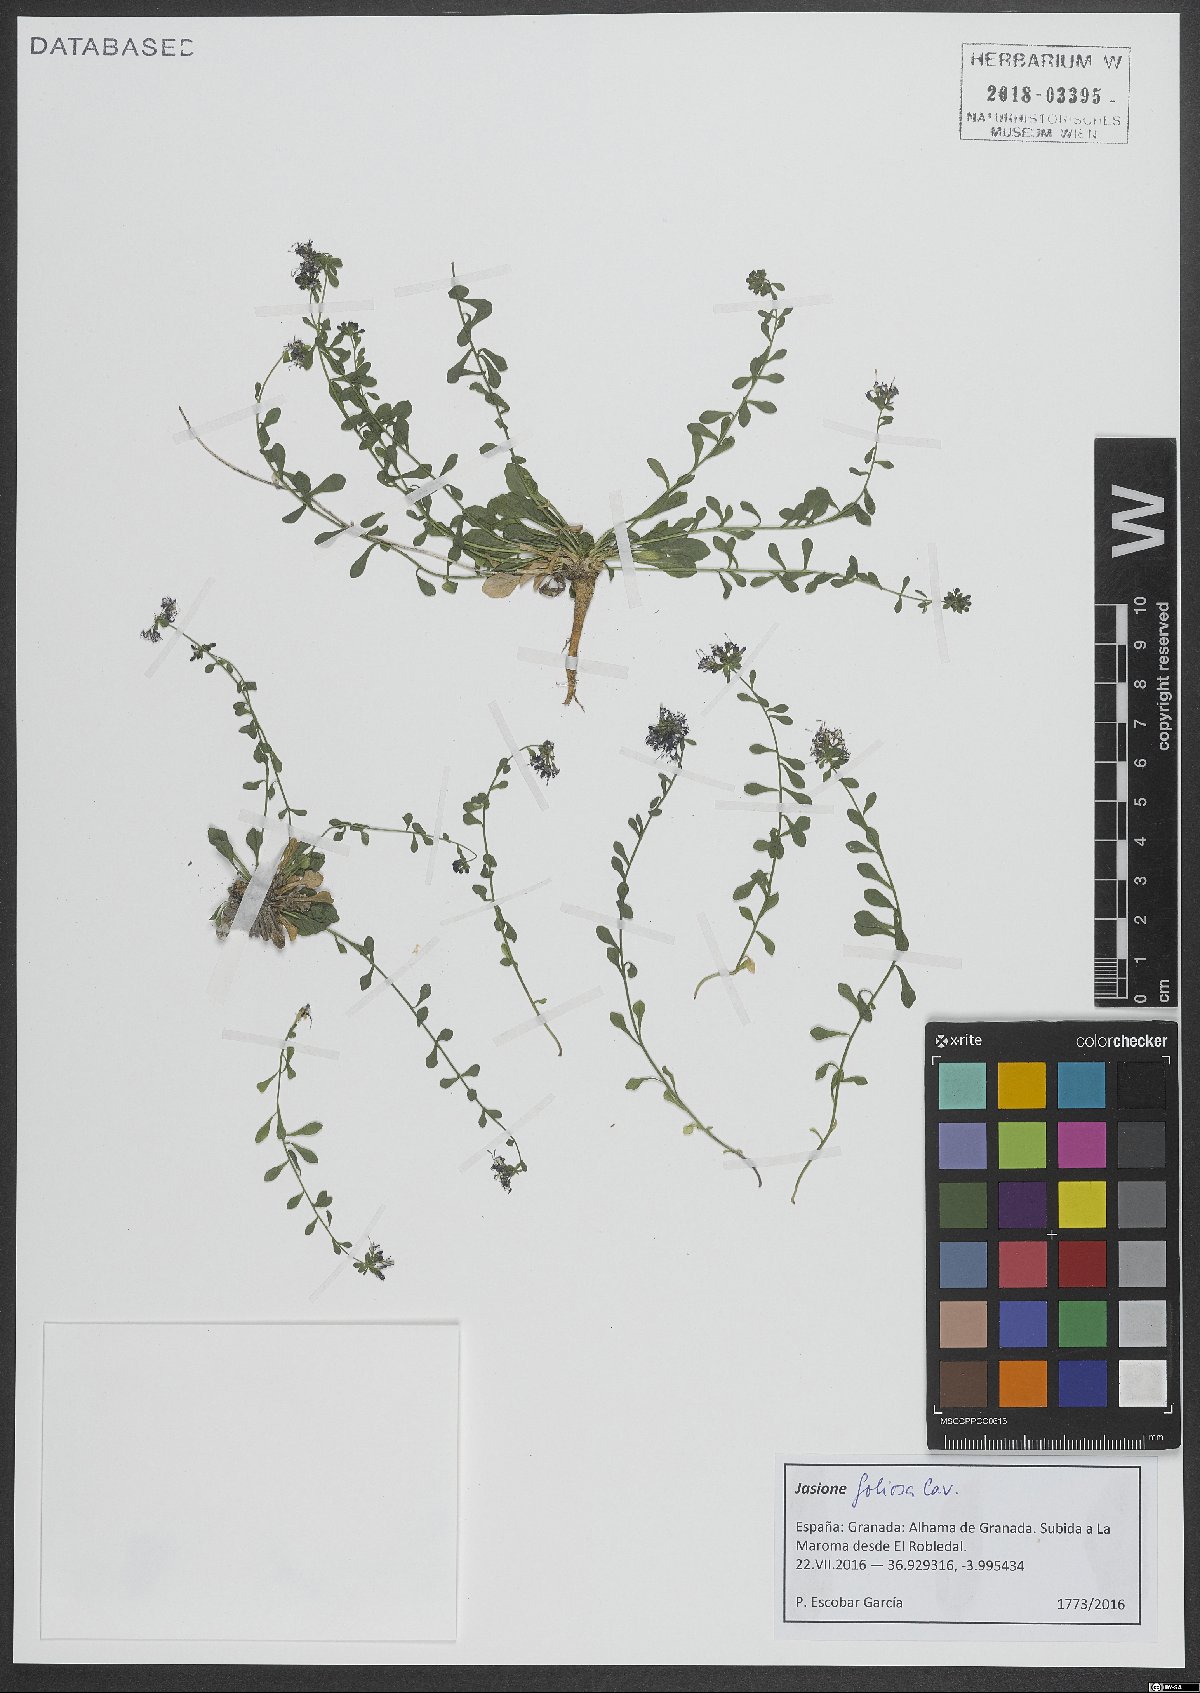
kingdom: Plantae
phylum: Tracheophyta
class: Magnoliopsida
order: Asterales
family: Campanulaceae
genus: Jasione
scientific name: Jasione foliosa
